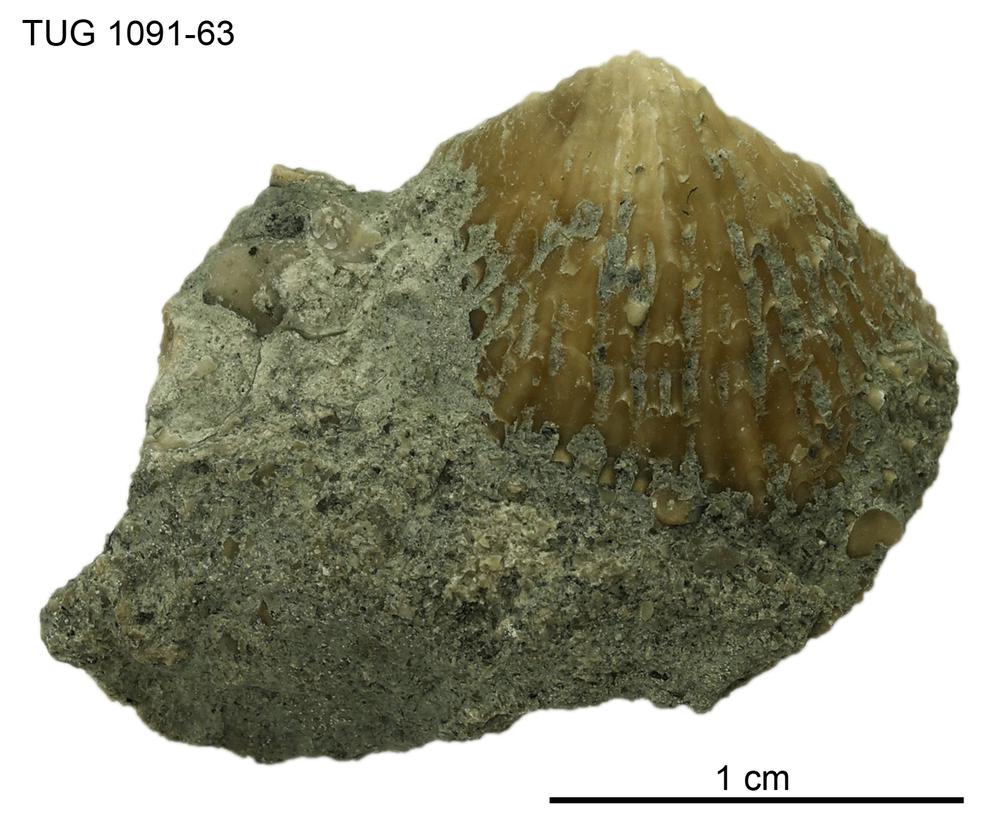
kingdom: Animalia
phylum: Brachiopoda
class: Rhynchonellata
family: Atrypidae
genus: Atrypa
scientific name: Atrypa
